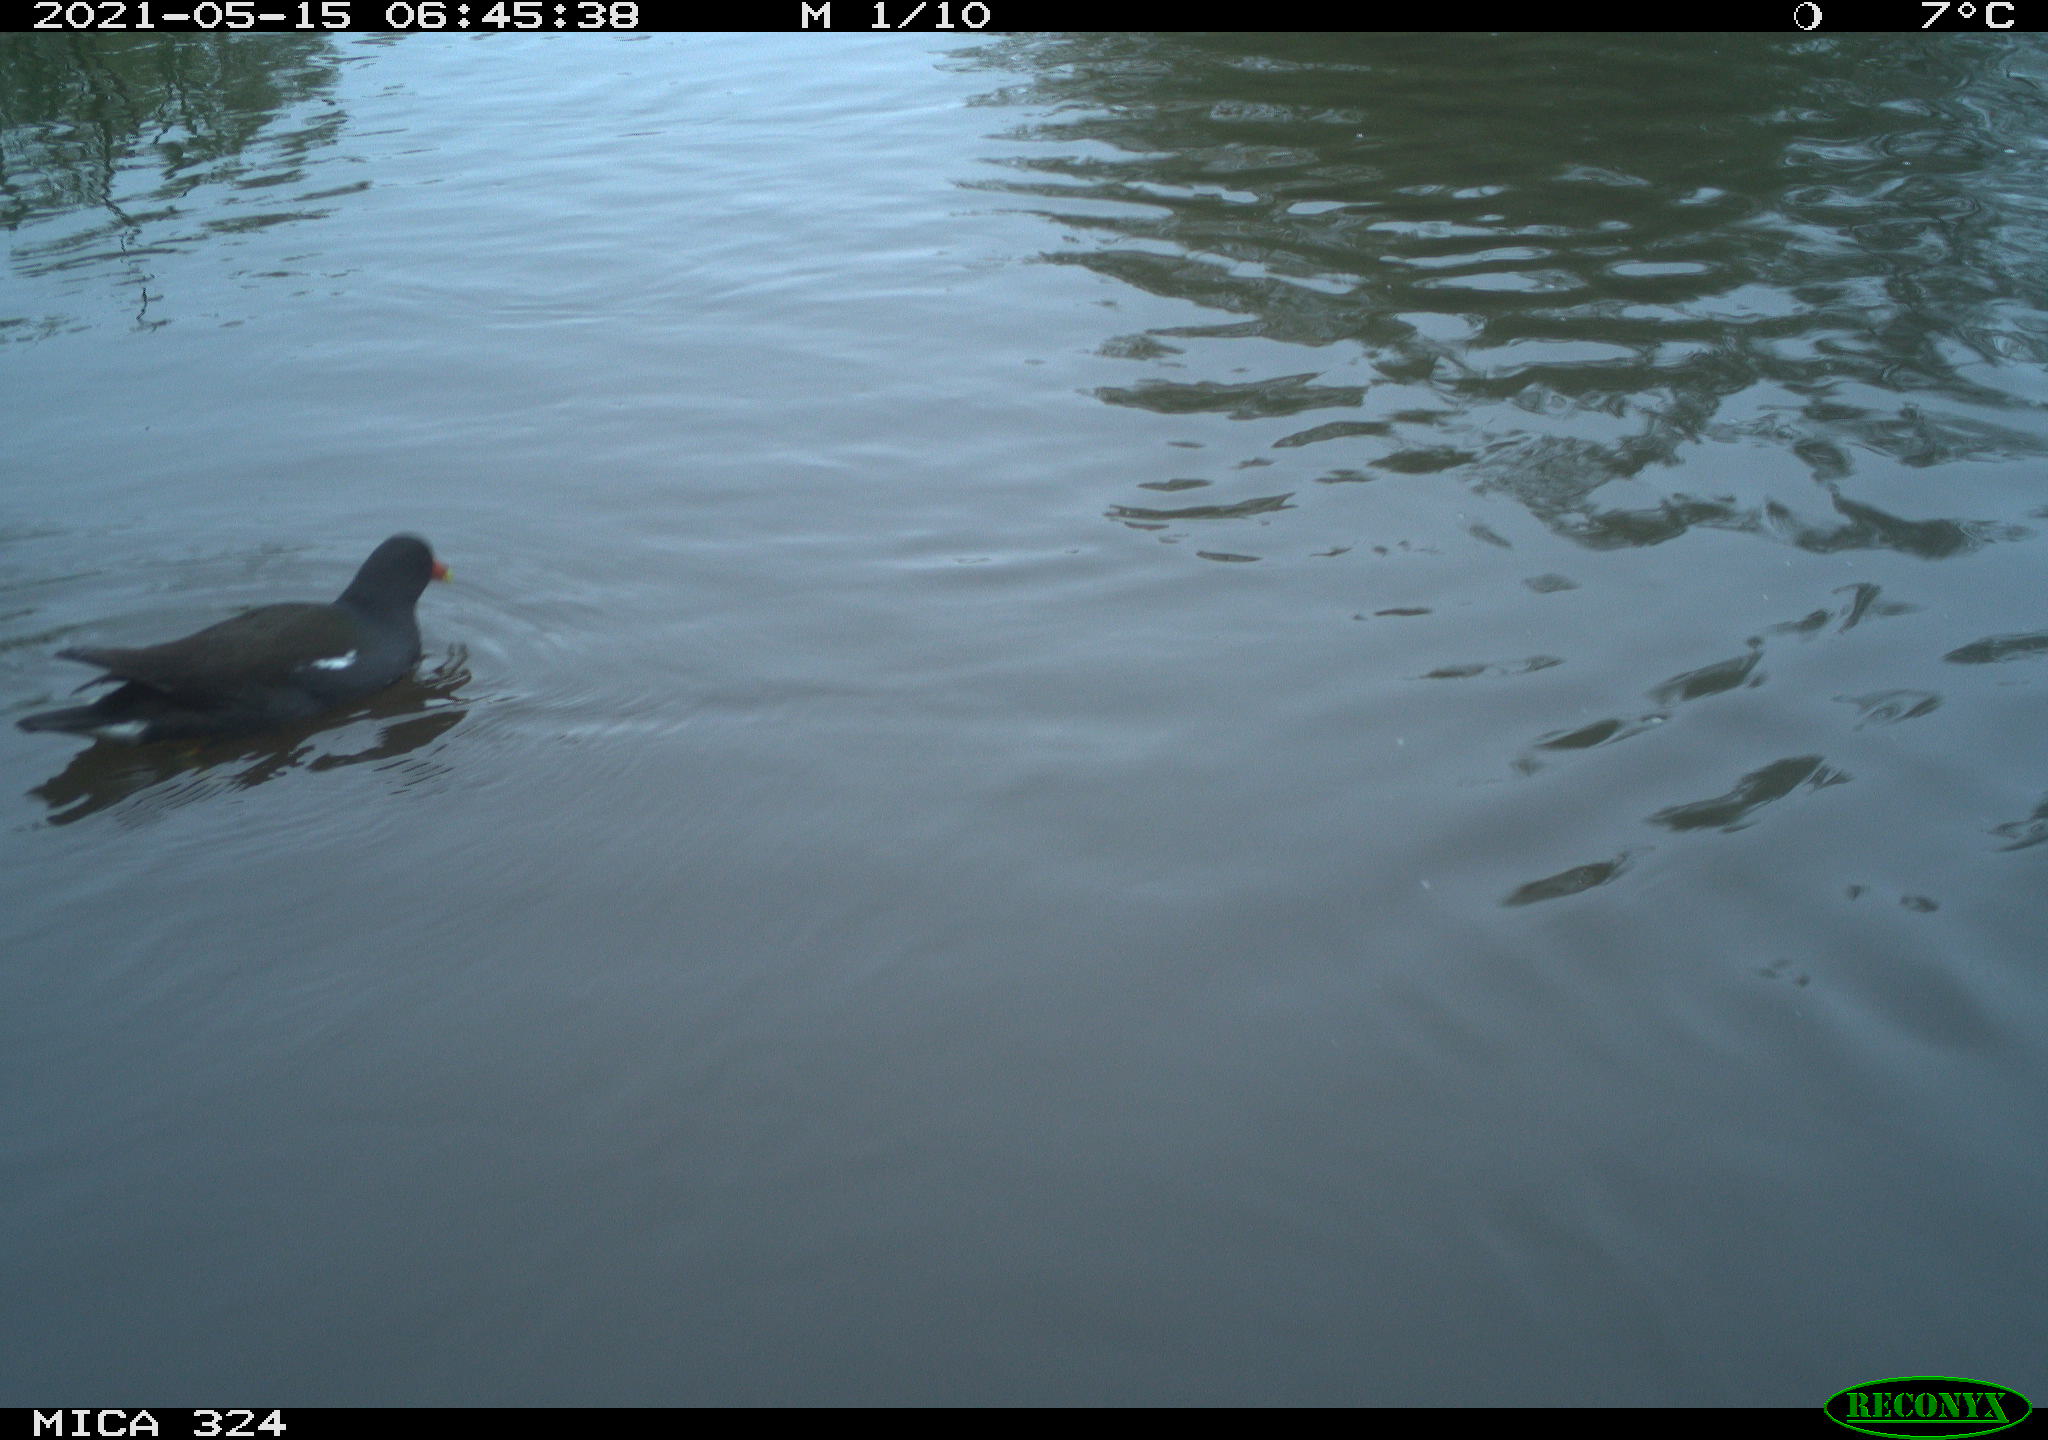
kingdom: Animalia
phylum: Chordata
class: Aves
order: Gruiformes
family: Rallidae
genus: Gallinula
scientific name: Gallinula chloropus
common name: Common moorhen
